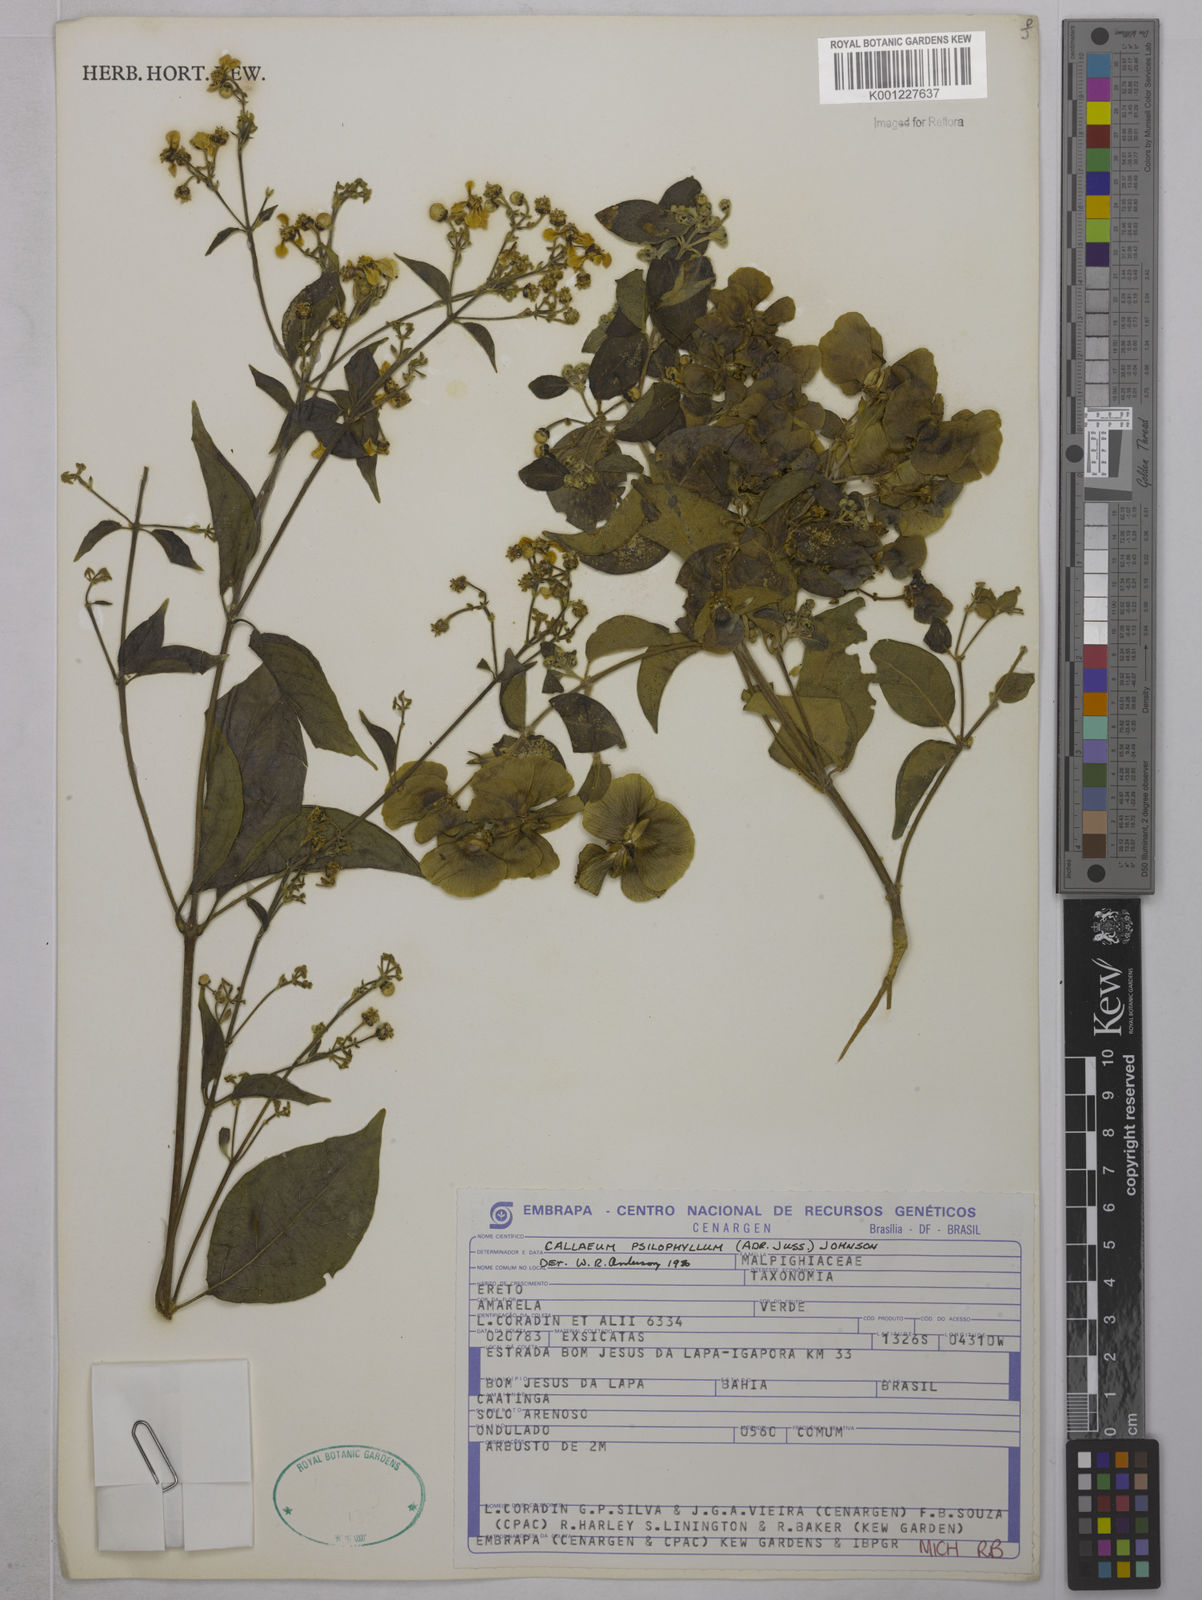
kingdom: Plantae
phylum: Tracheophyta
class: Magnoliopsida
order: Malpighiales
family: Malpighiaceae
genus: Callaeum
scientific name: Callaeum psilophyllum
